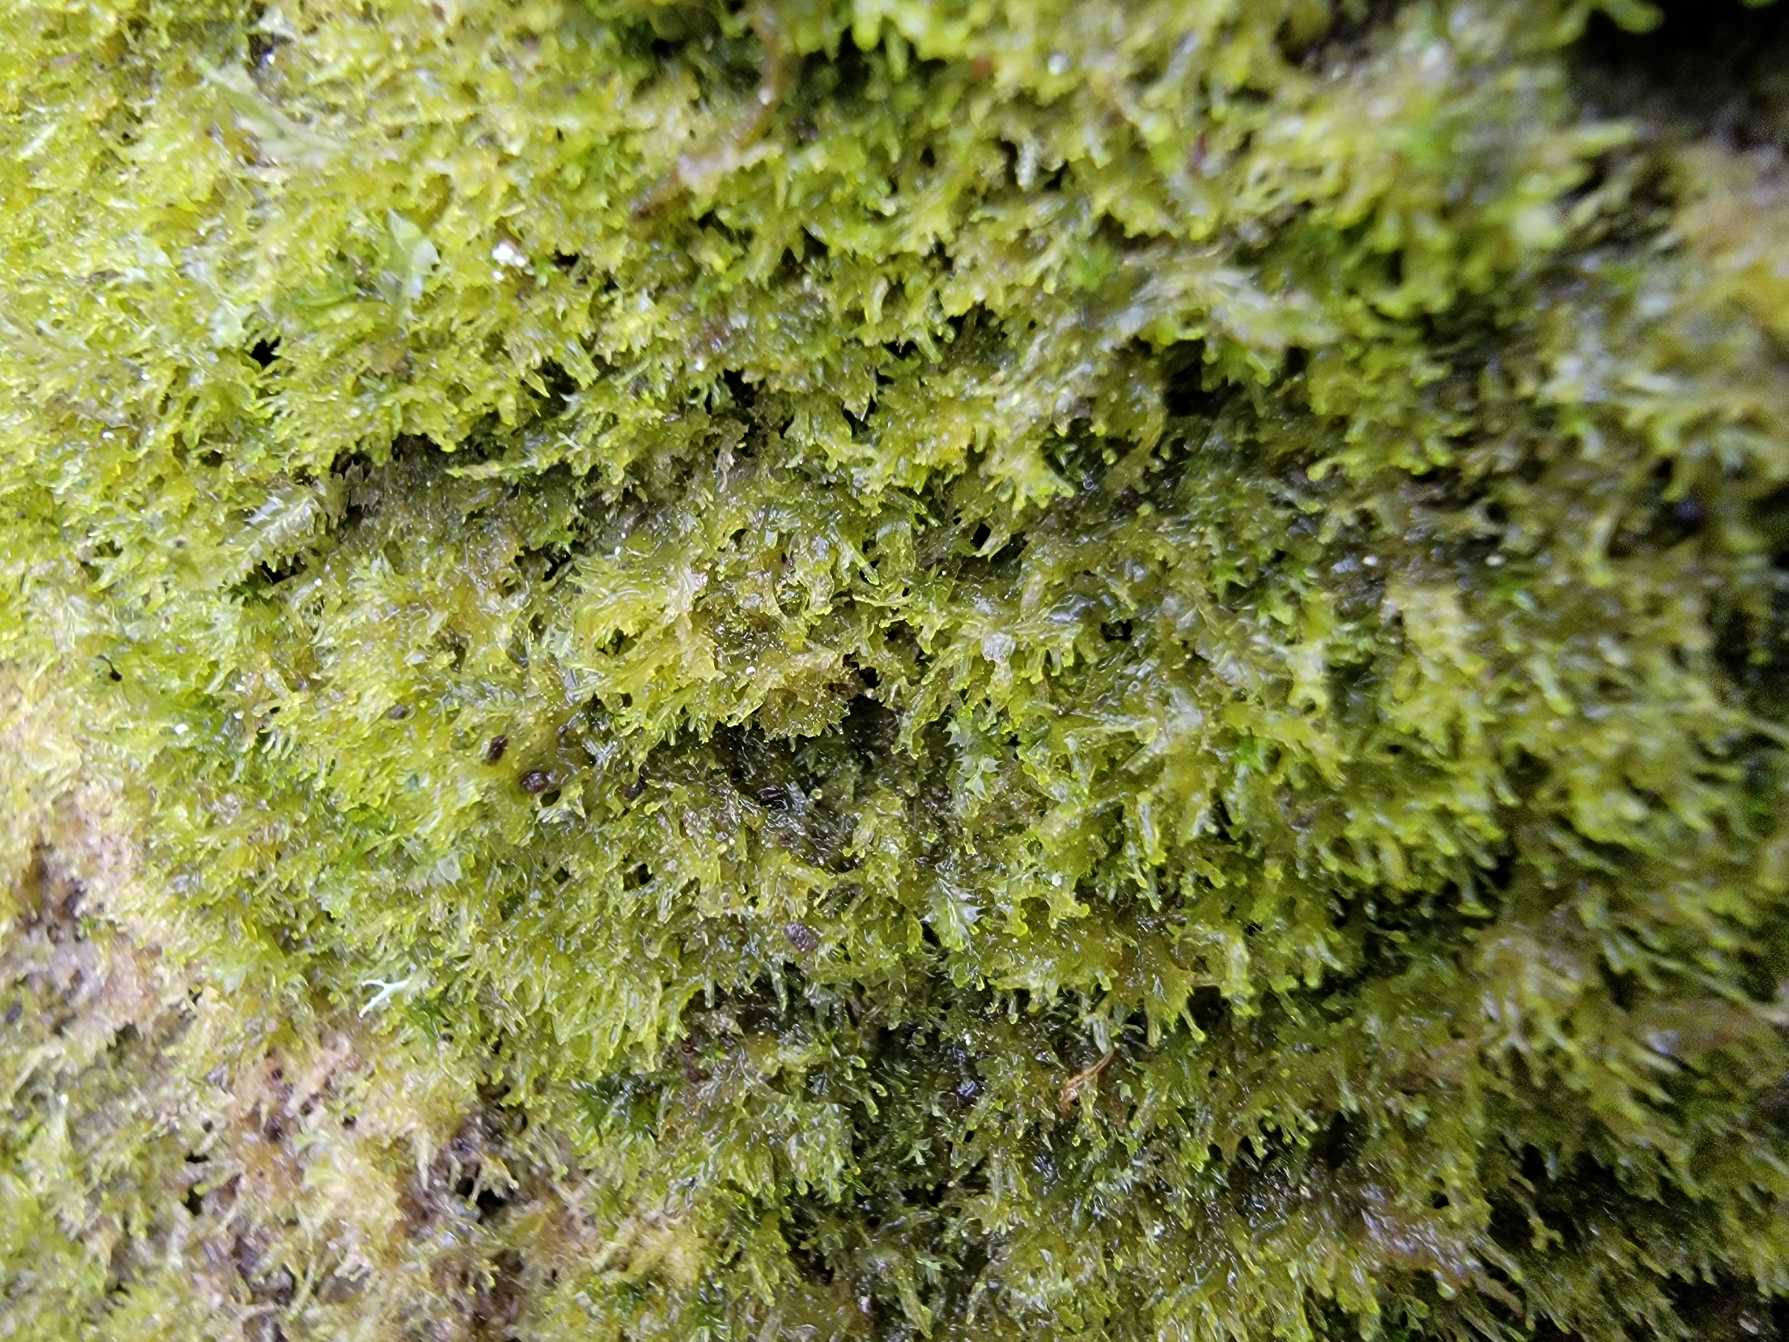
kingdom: Plantae
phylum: Marchantiophyta
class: Jungermanniopsida
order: Metzgeriales
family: Aneuraceae
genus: Riccardia
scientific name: Riccardia palmata
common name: Blågrøn gaffelløv
